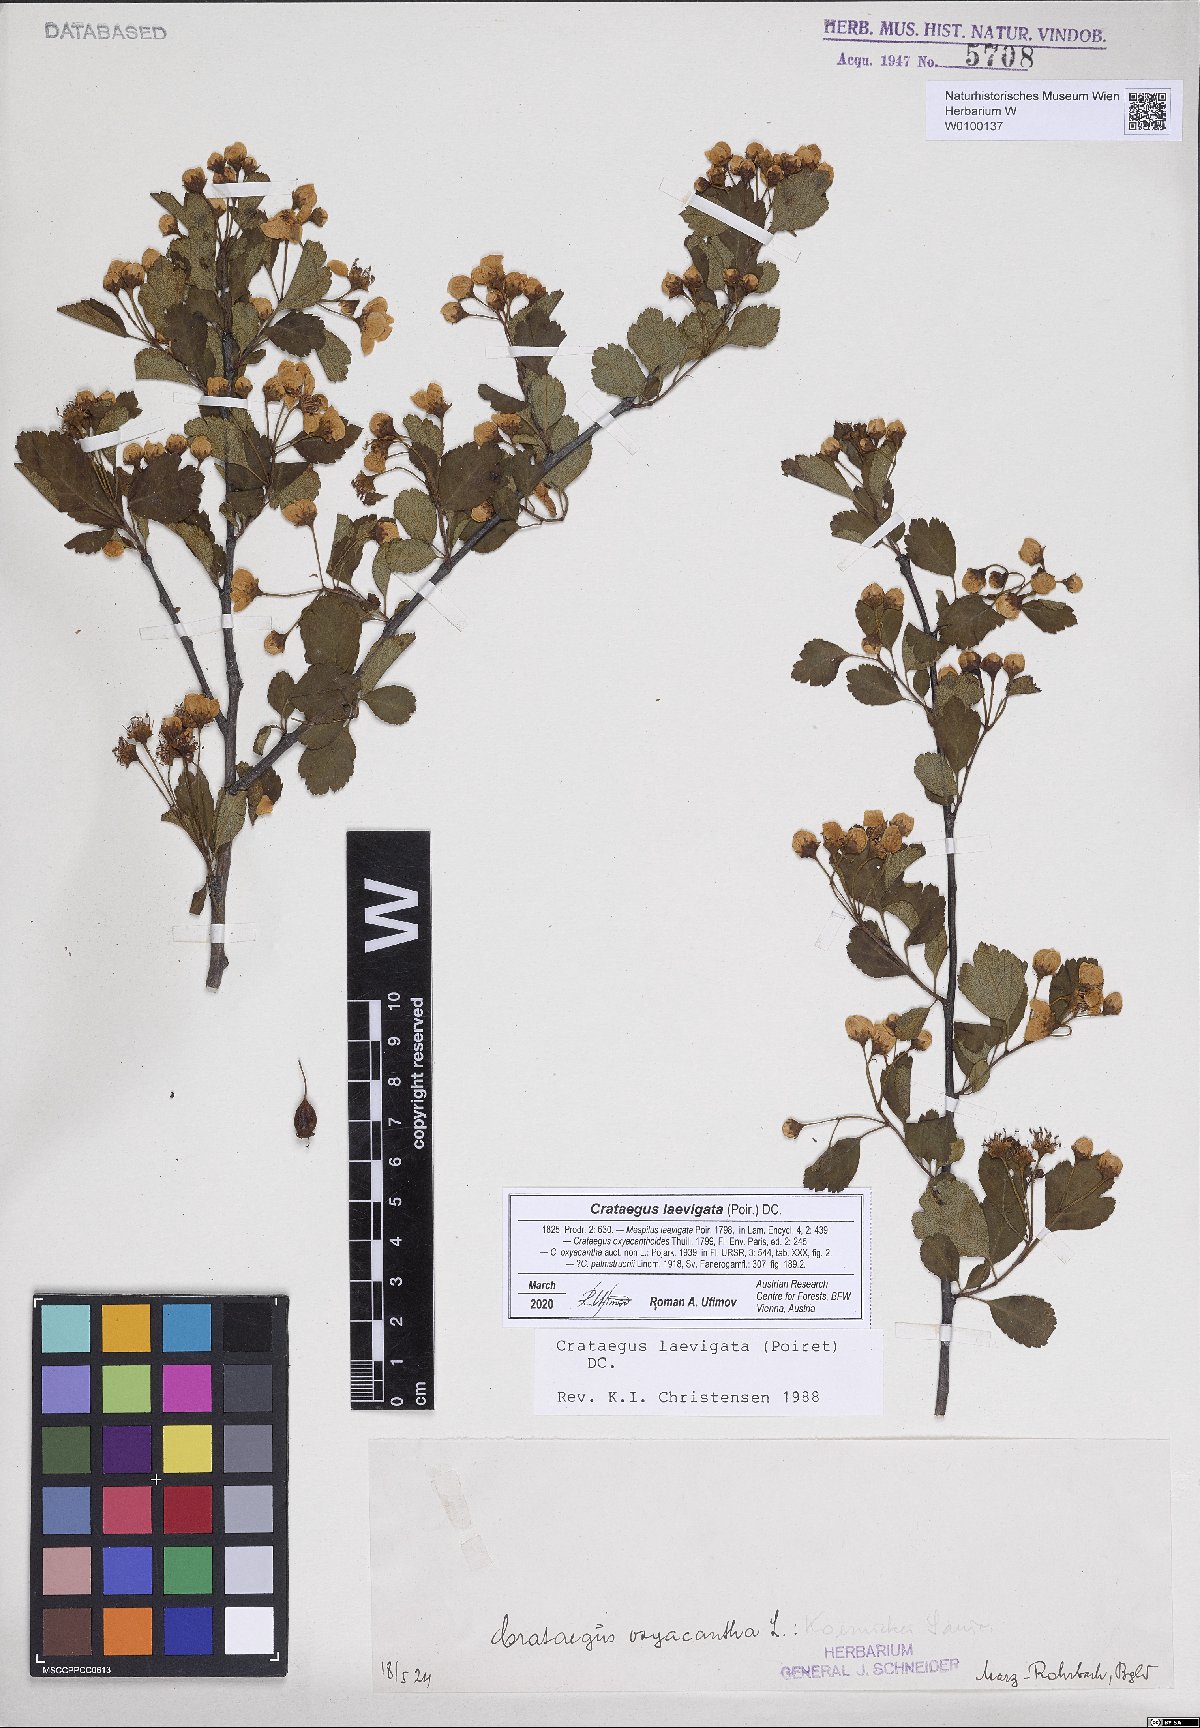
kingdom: Plantae
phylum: Tracheophyta
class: Magnoliopsida
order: Rosales
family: Rosaceae
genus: Crataegus
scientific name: Crataegus laevigata
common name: Midland hawthorn
